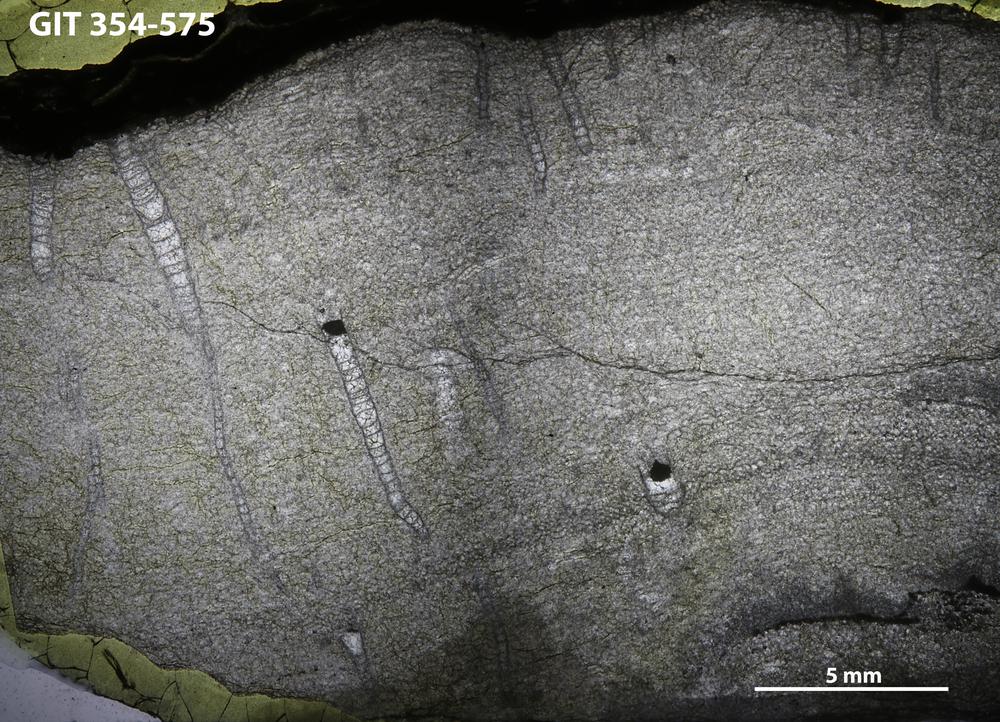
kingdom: Animalia
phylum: Porifera
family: Ecclimadictyidae
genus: Ecclimadictyon
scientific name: Ecclimadictyon
